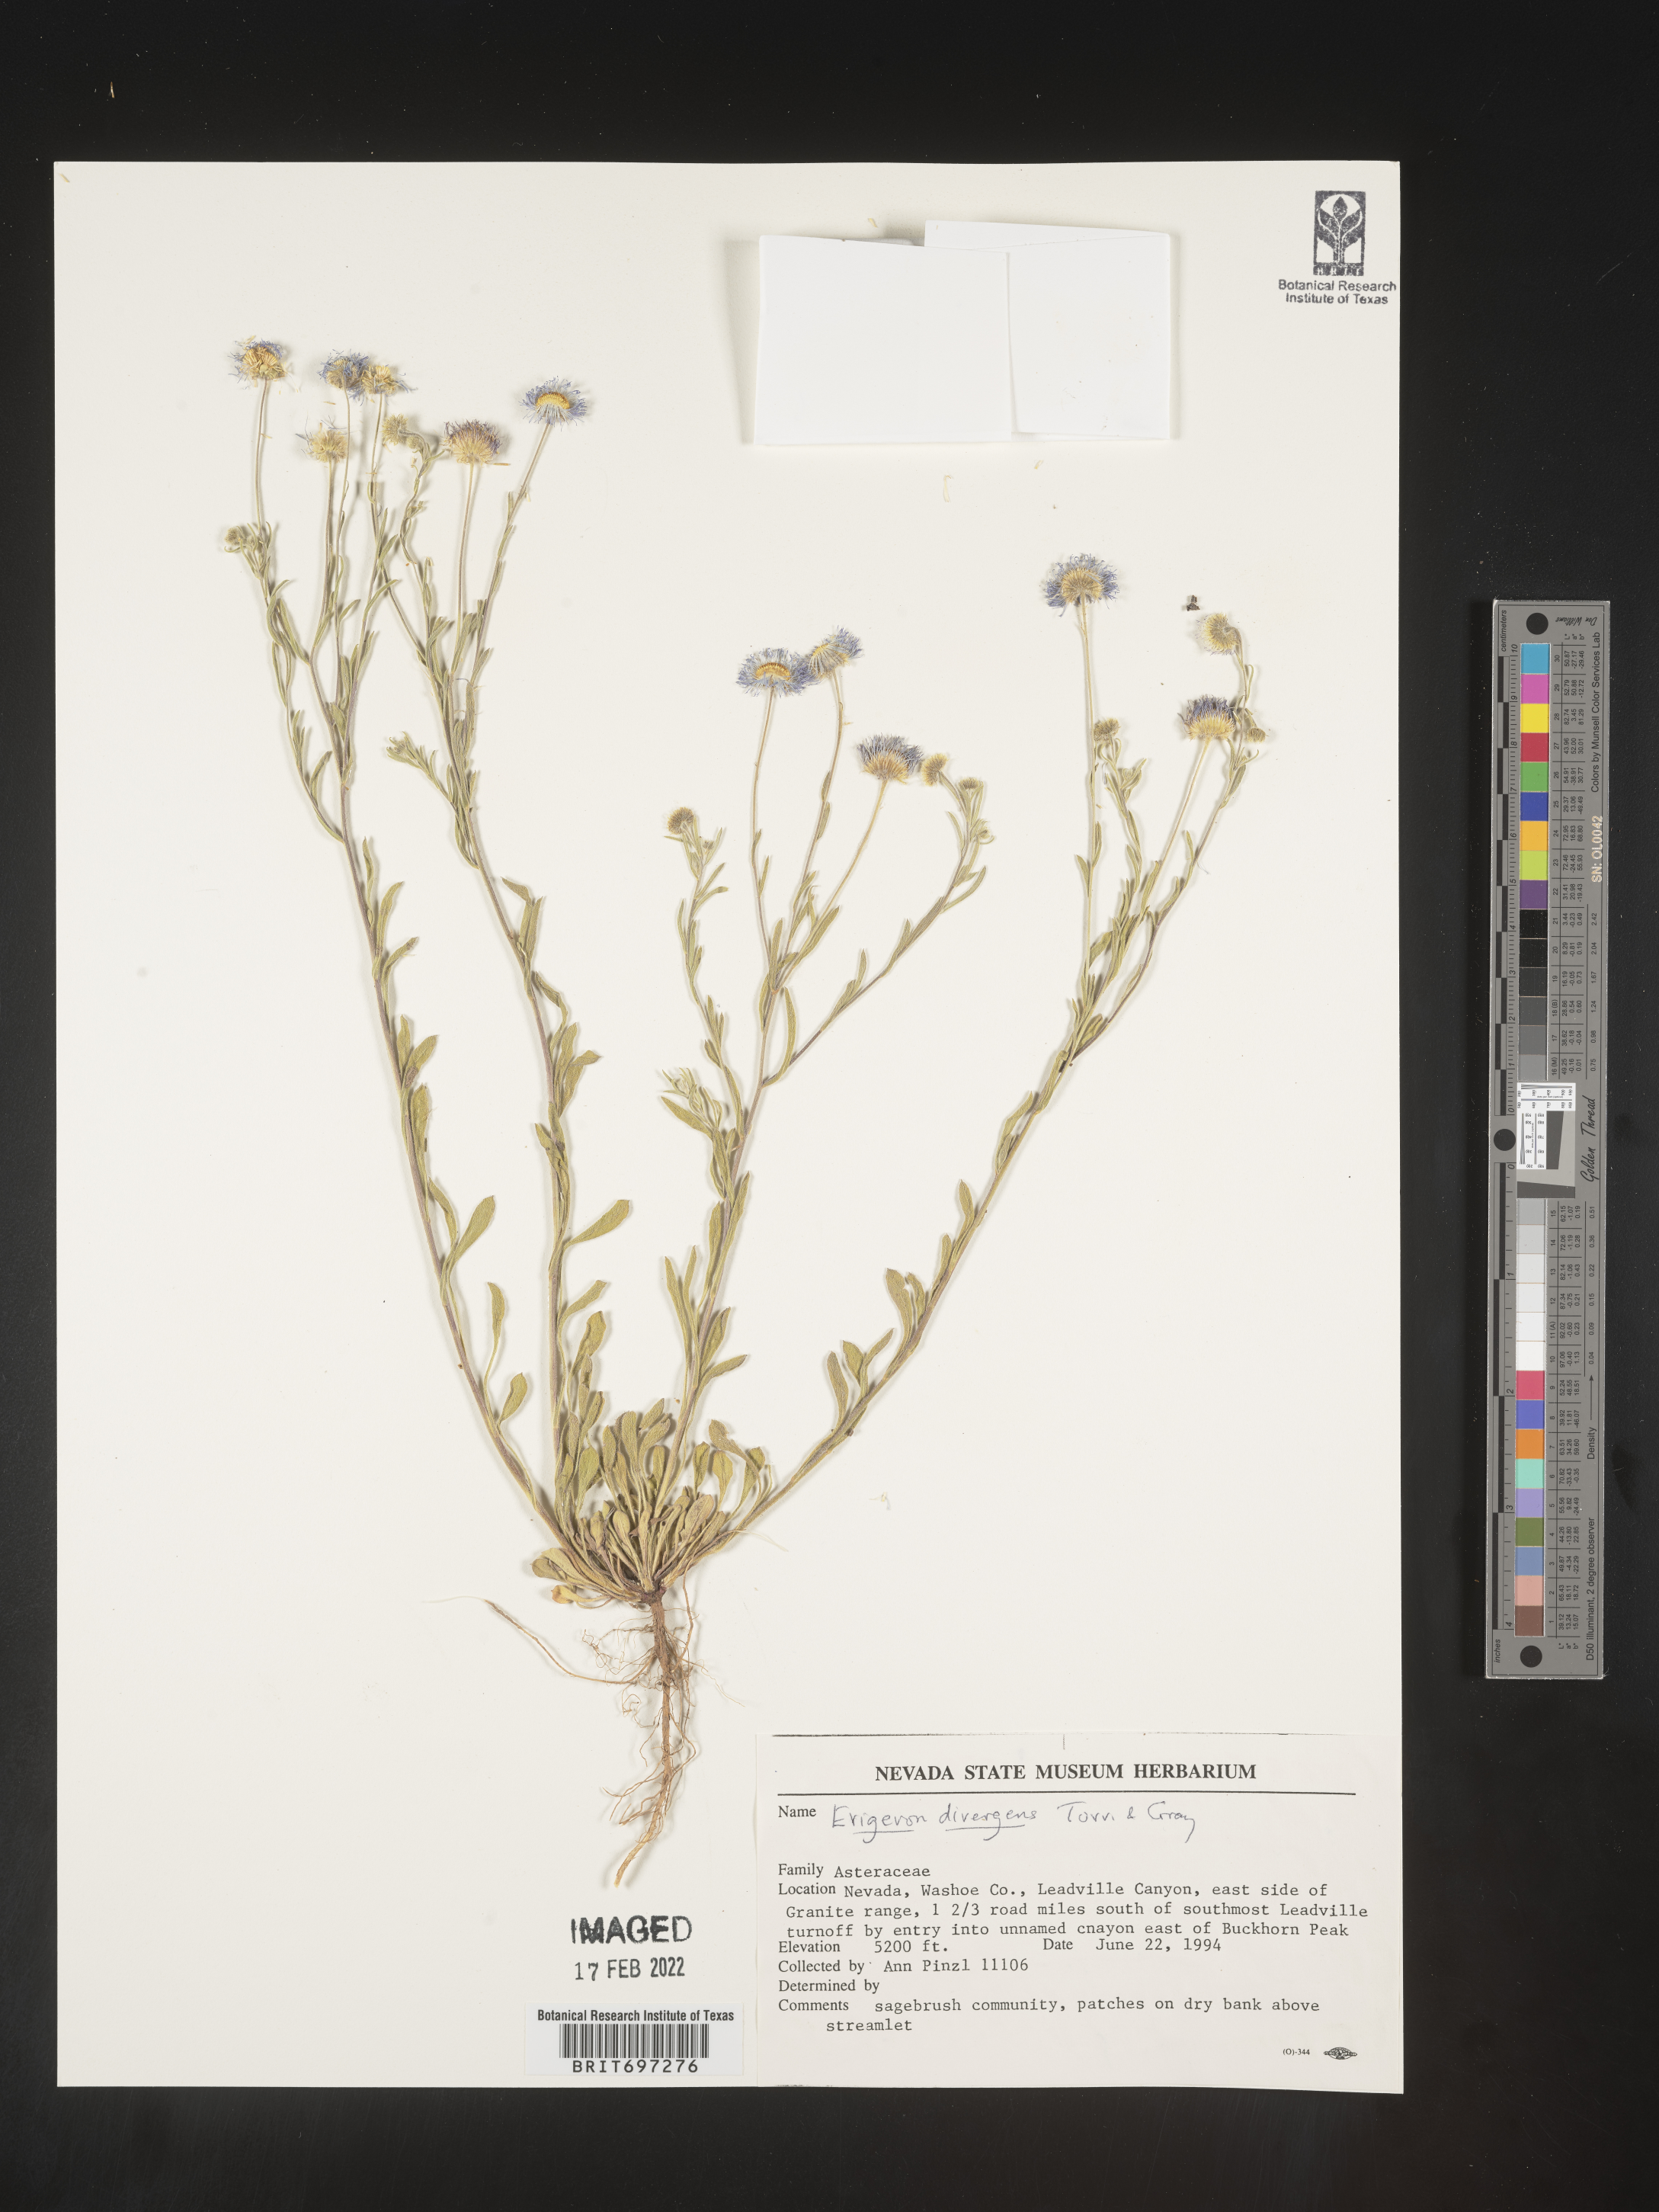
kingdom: Plantae
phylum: Tracheophyta
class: Magnoliopsida
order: Asterales
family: Asteraceae
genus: Erigeron
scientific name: Erigeron divergens
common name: Diffuse fleabane
